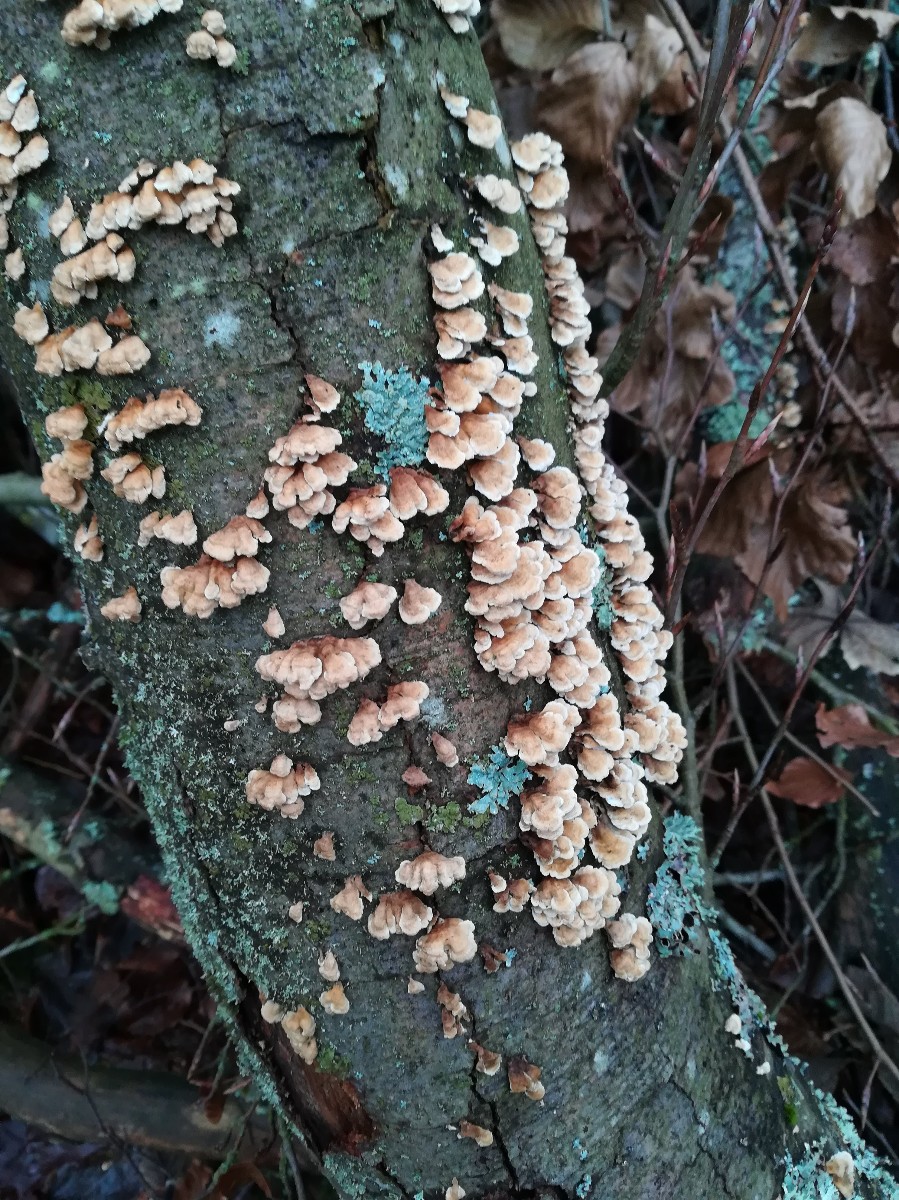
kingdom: Fungi
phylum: Basidiomycota
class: Agaricomycetes
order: Amylocorticiales
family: Amylocorticiaceae
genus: Plicaturopsis
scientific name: Plicaturopsis crispa
